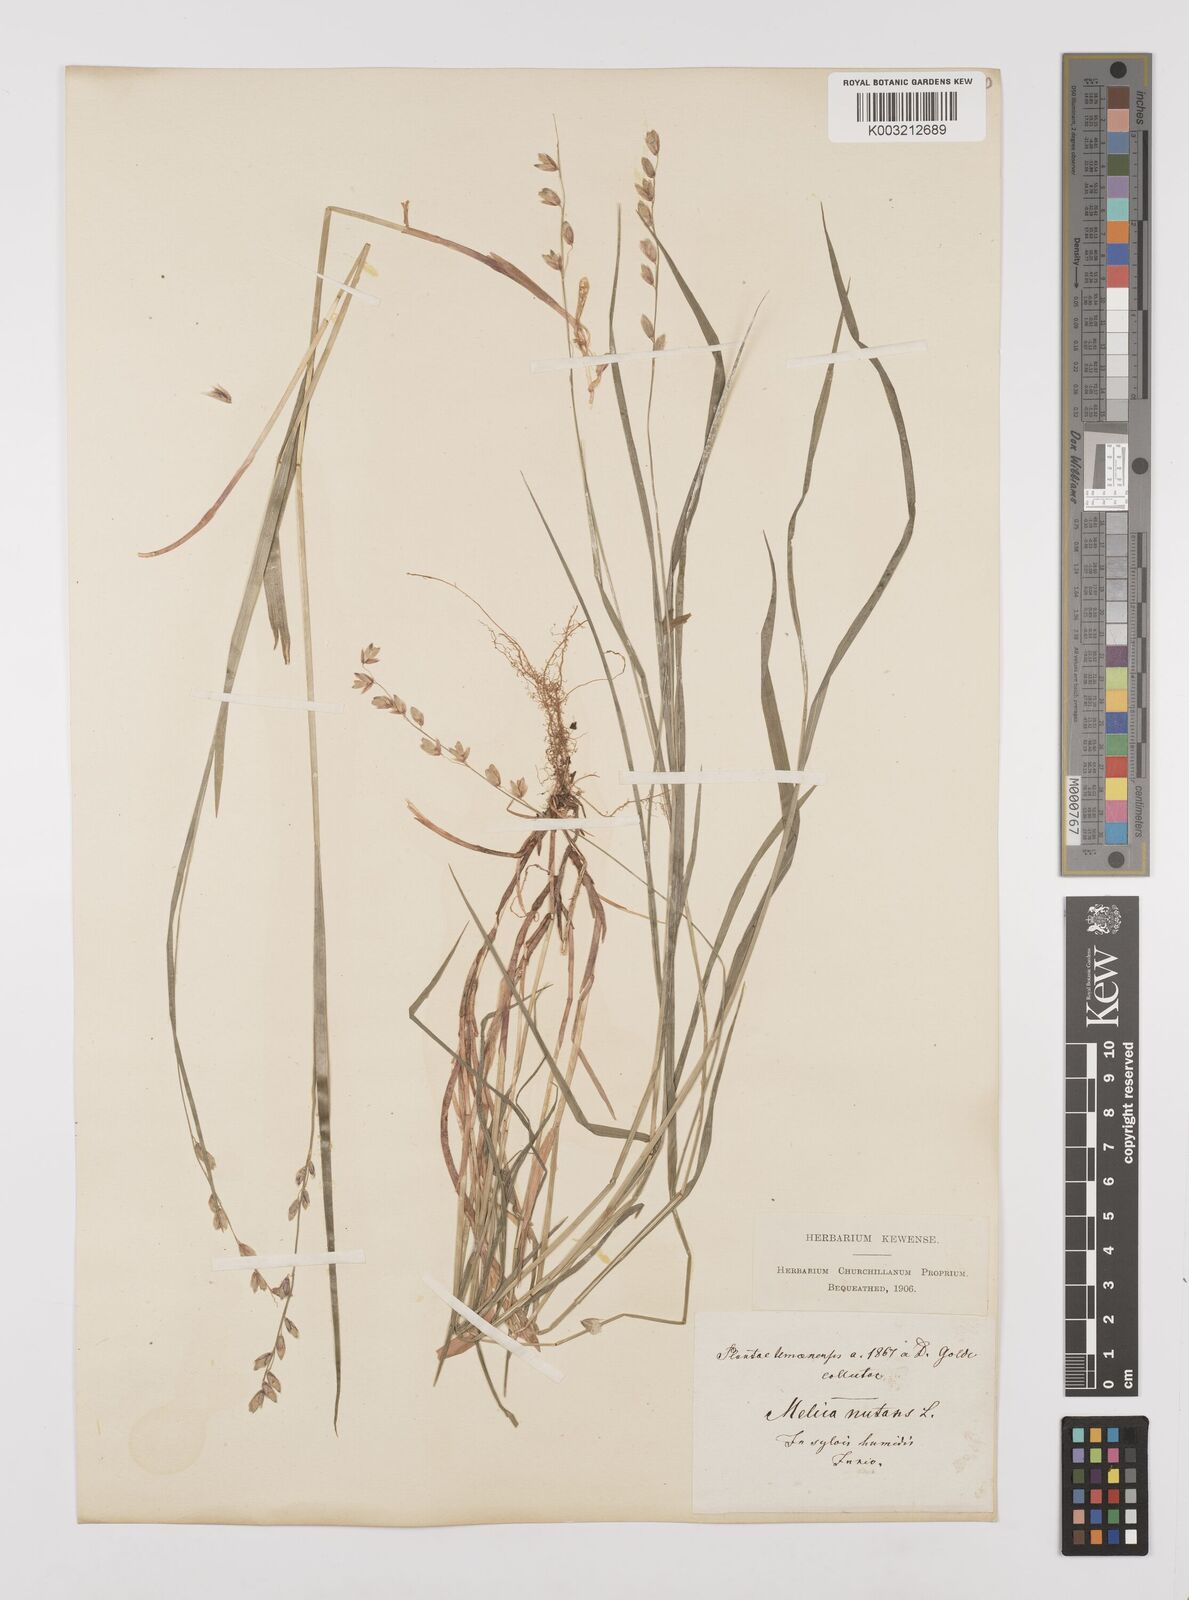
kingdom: Plantae
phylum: Tracheophyta
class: Liliopsida
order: Poales
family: Poaceae
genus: Melica
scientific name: Melica nutans
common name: Mountain melick
